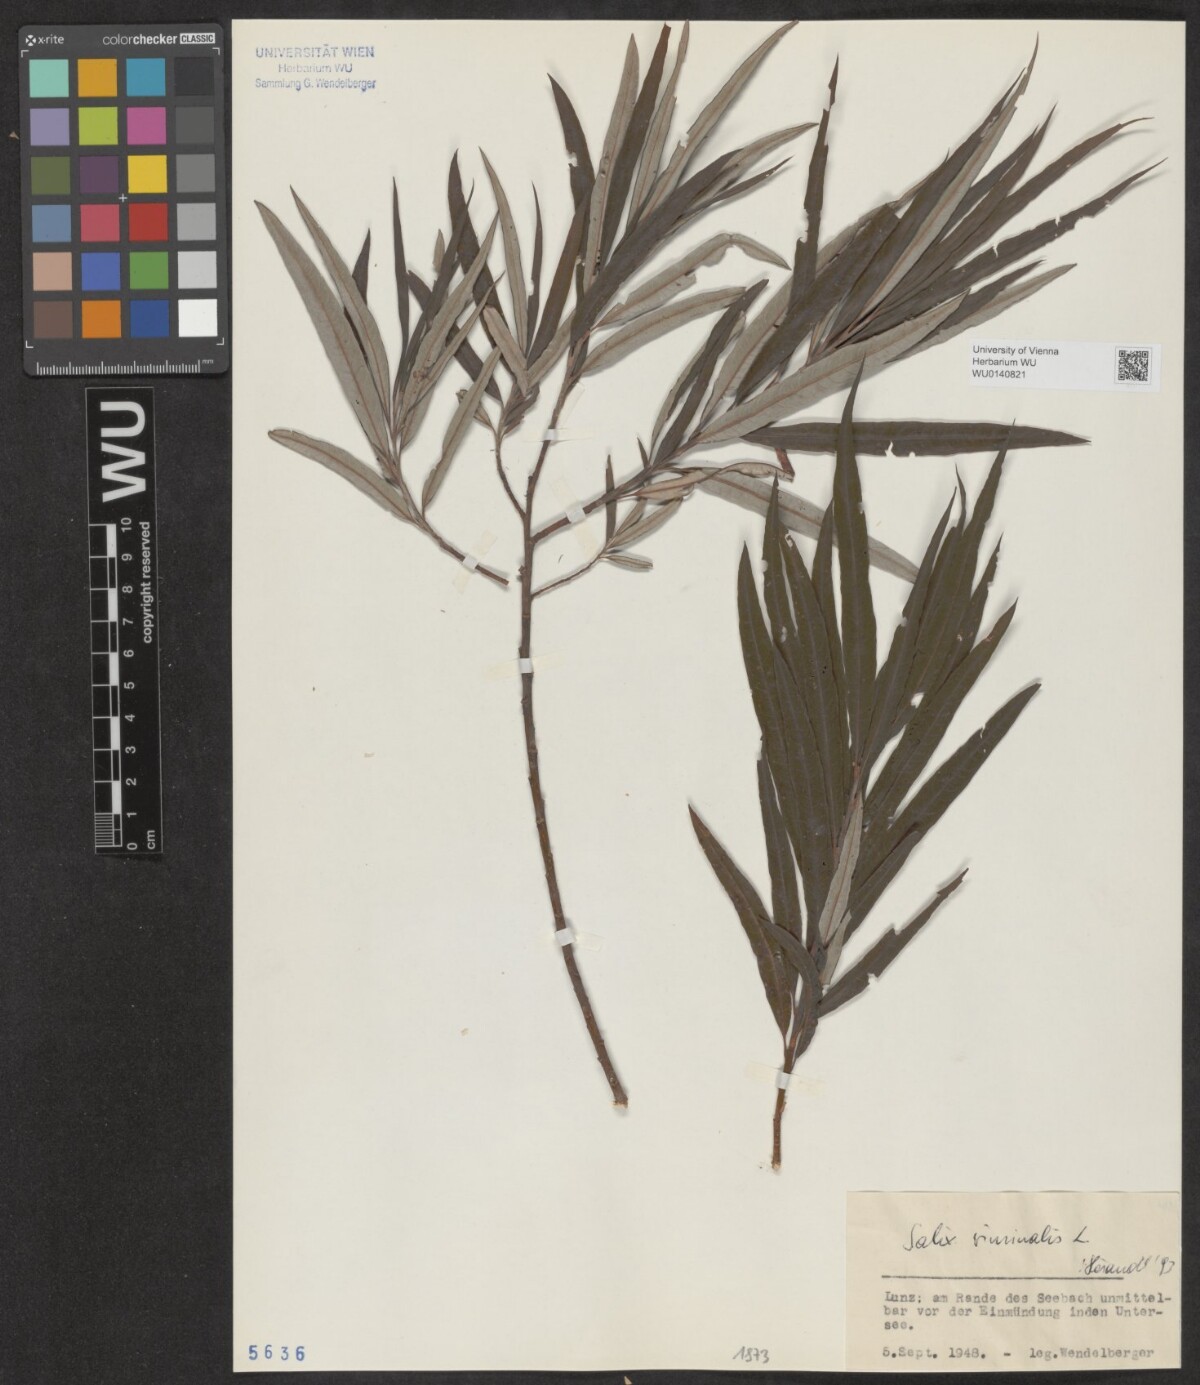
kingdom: Plantae
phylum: Tracheophyta
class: Magnoliopsida
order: Malpighiales
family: Salicaceae
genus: Salix
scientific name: Salix viminalis
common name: Osier
